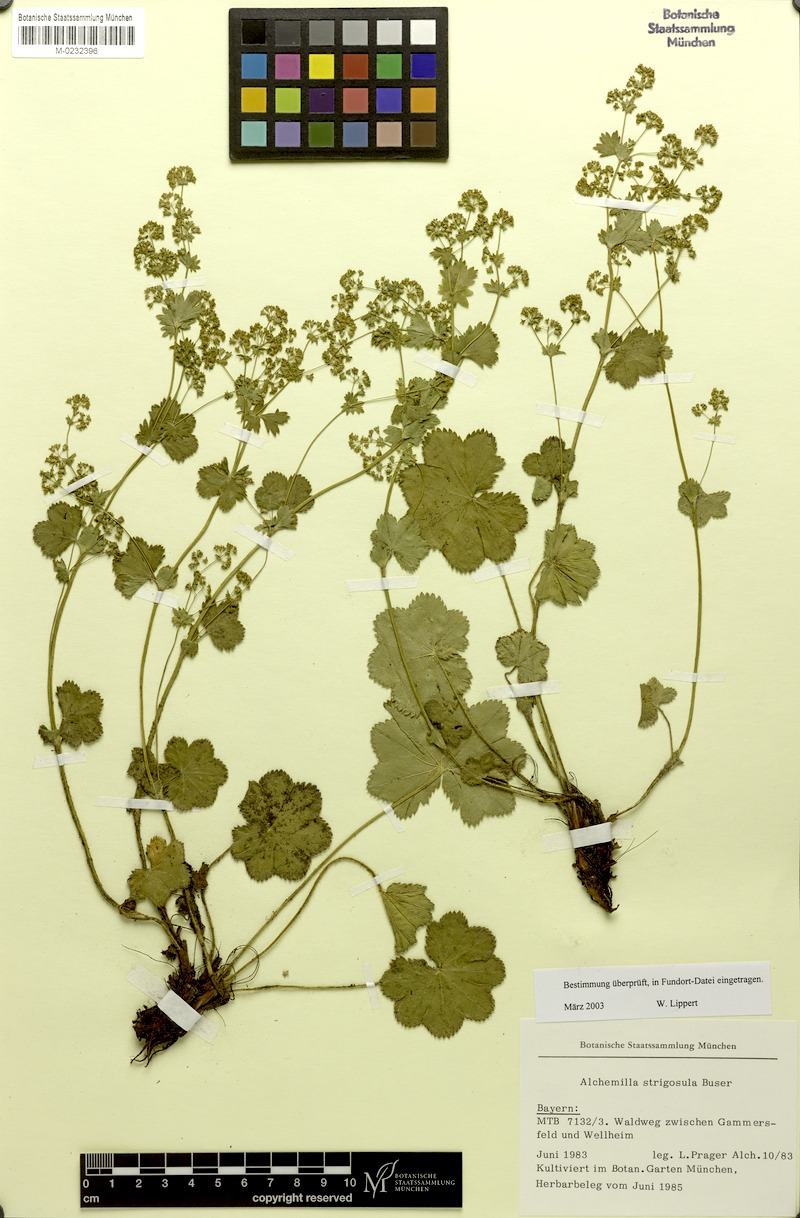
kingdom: Plantae
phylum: Tracheophyta
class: Magnoliopsida
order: Rosales
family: Rosaceae
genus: Alchemilla
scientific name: Alchemilla strigosula
